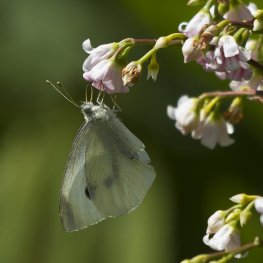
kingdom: Animalia
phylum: Arthropoda
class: Insecta
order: Lepidoptera
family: Pieridae
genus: Pieris
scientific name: Pieris rapae
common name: Cabbage White
